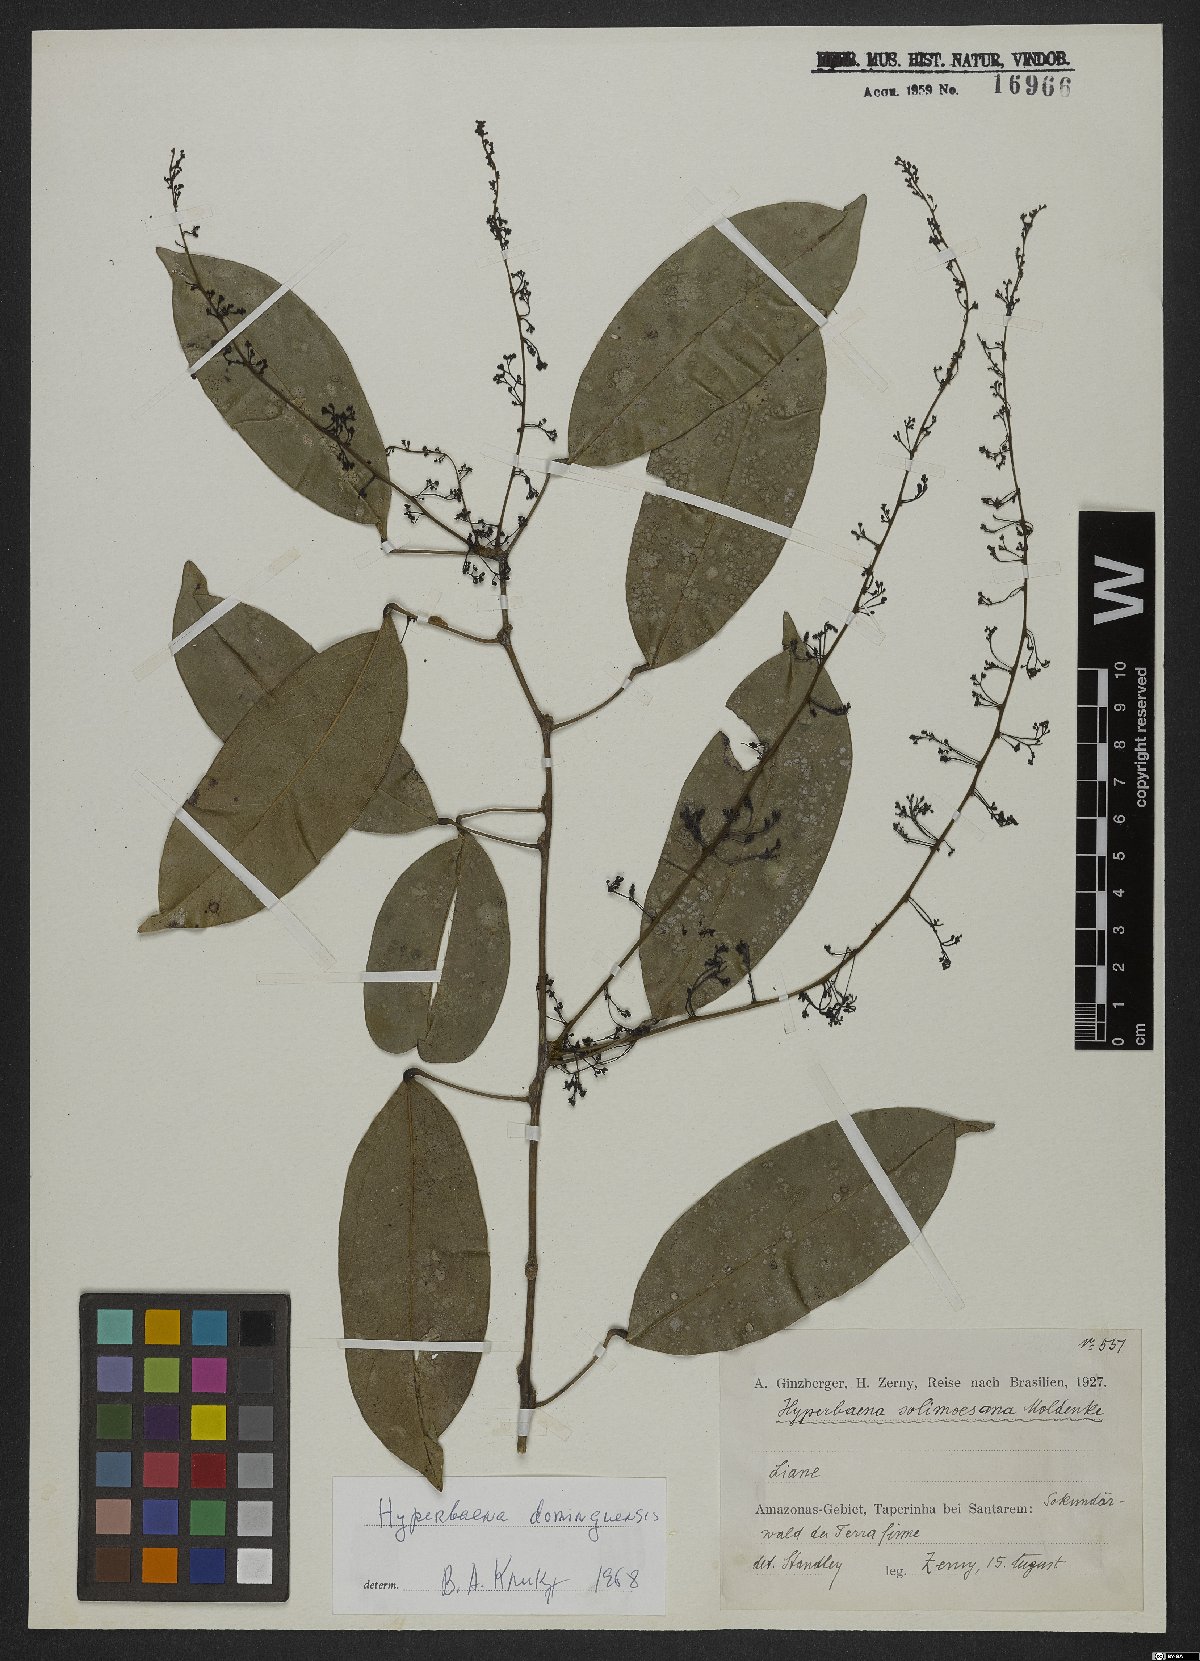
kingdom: Plantae
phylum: Tracheophyta
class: Magnoliopsida
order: Ranunculales
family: Menispermaceae
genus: Hyperbaena
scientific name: Hyperbaena domingensis
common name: Forest snakevine
